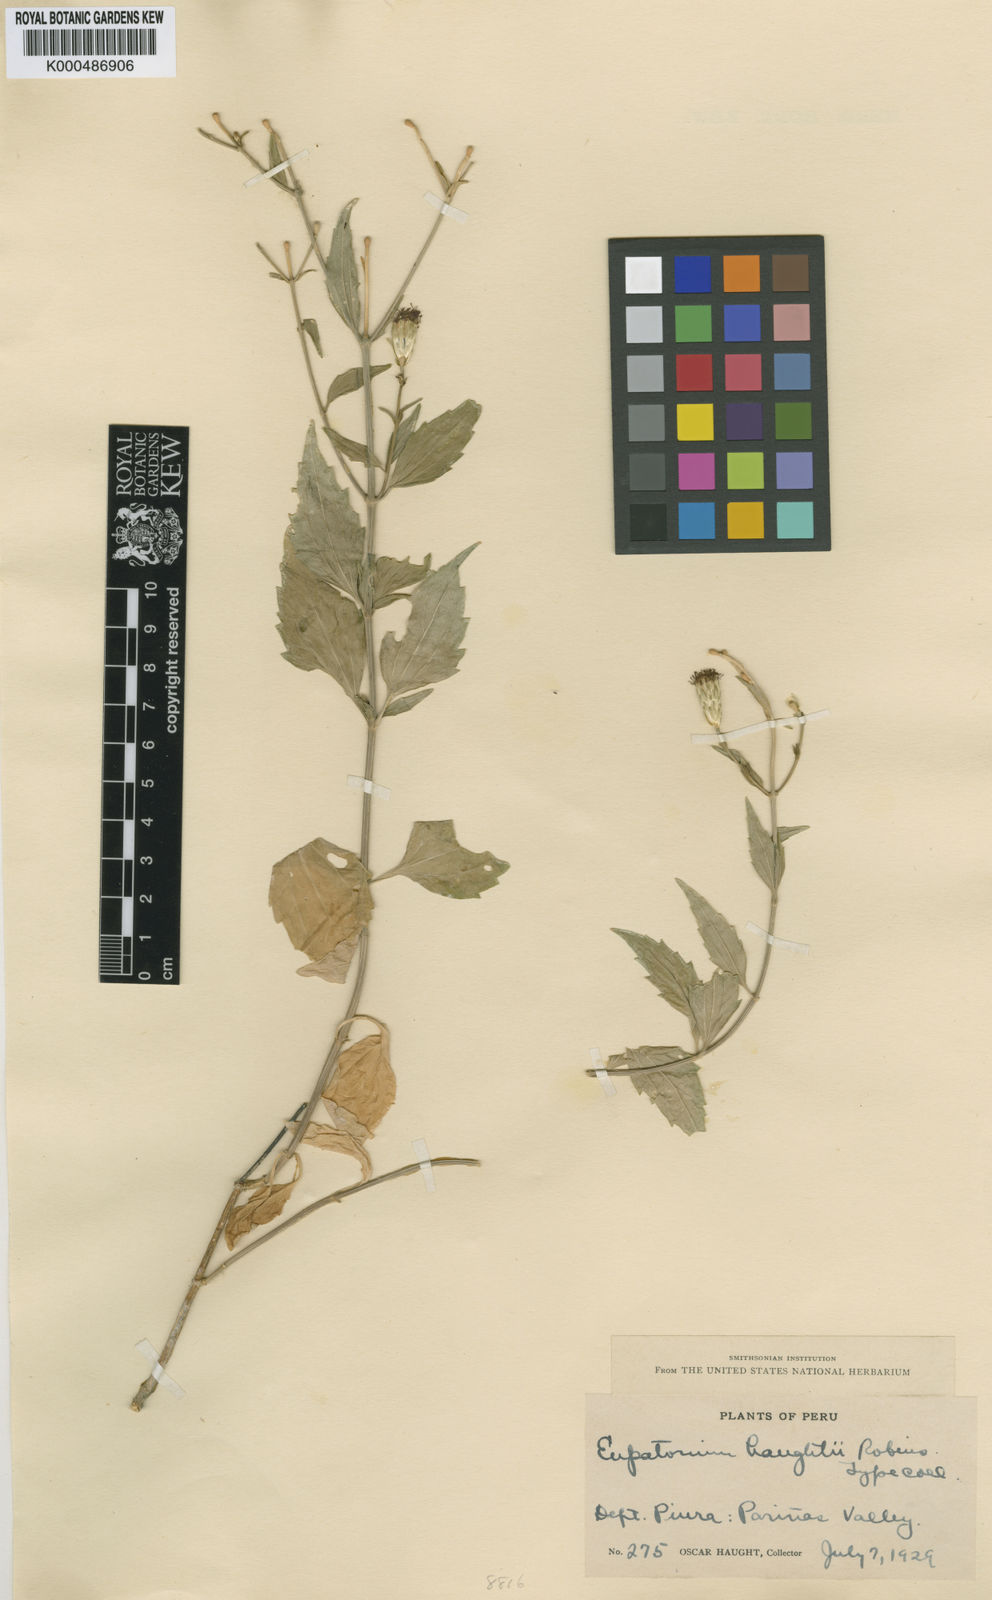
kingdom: Plantae
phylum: Tracheophyta
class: Magnoliopsida
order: Asterales
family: Asteraceae
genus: Chromolaena
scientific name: Chromolaena haughtii
